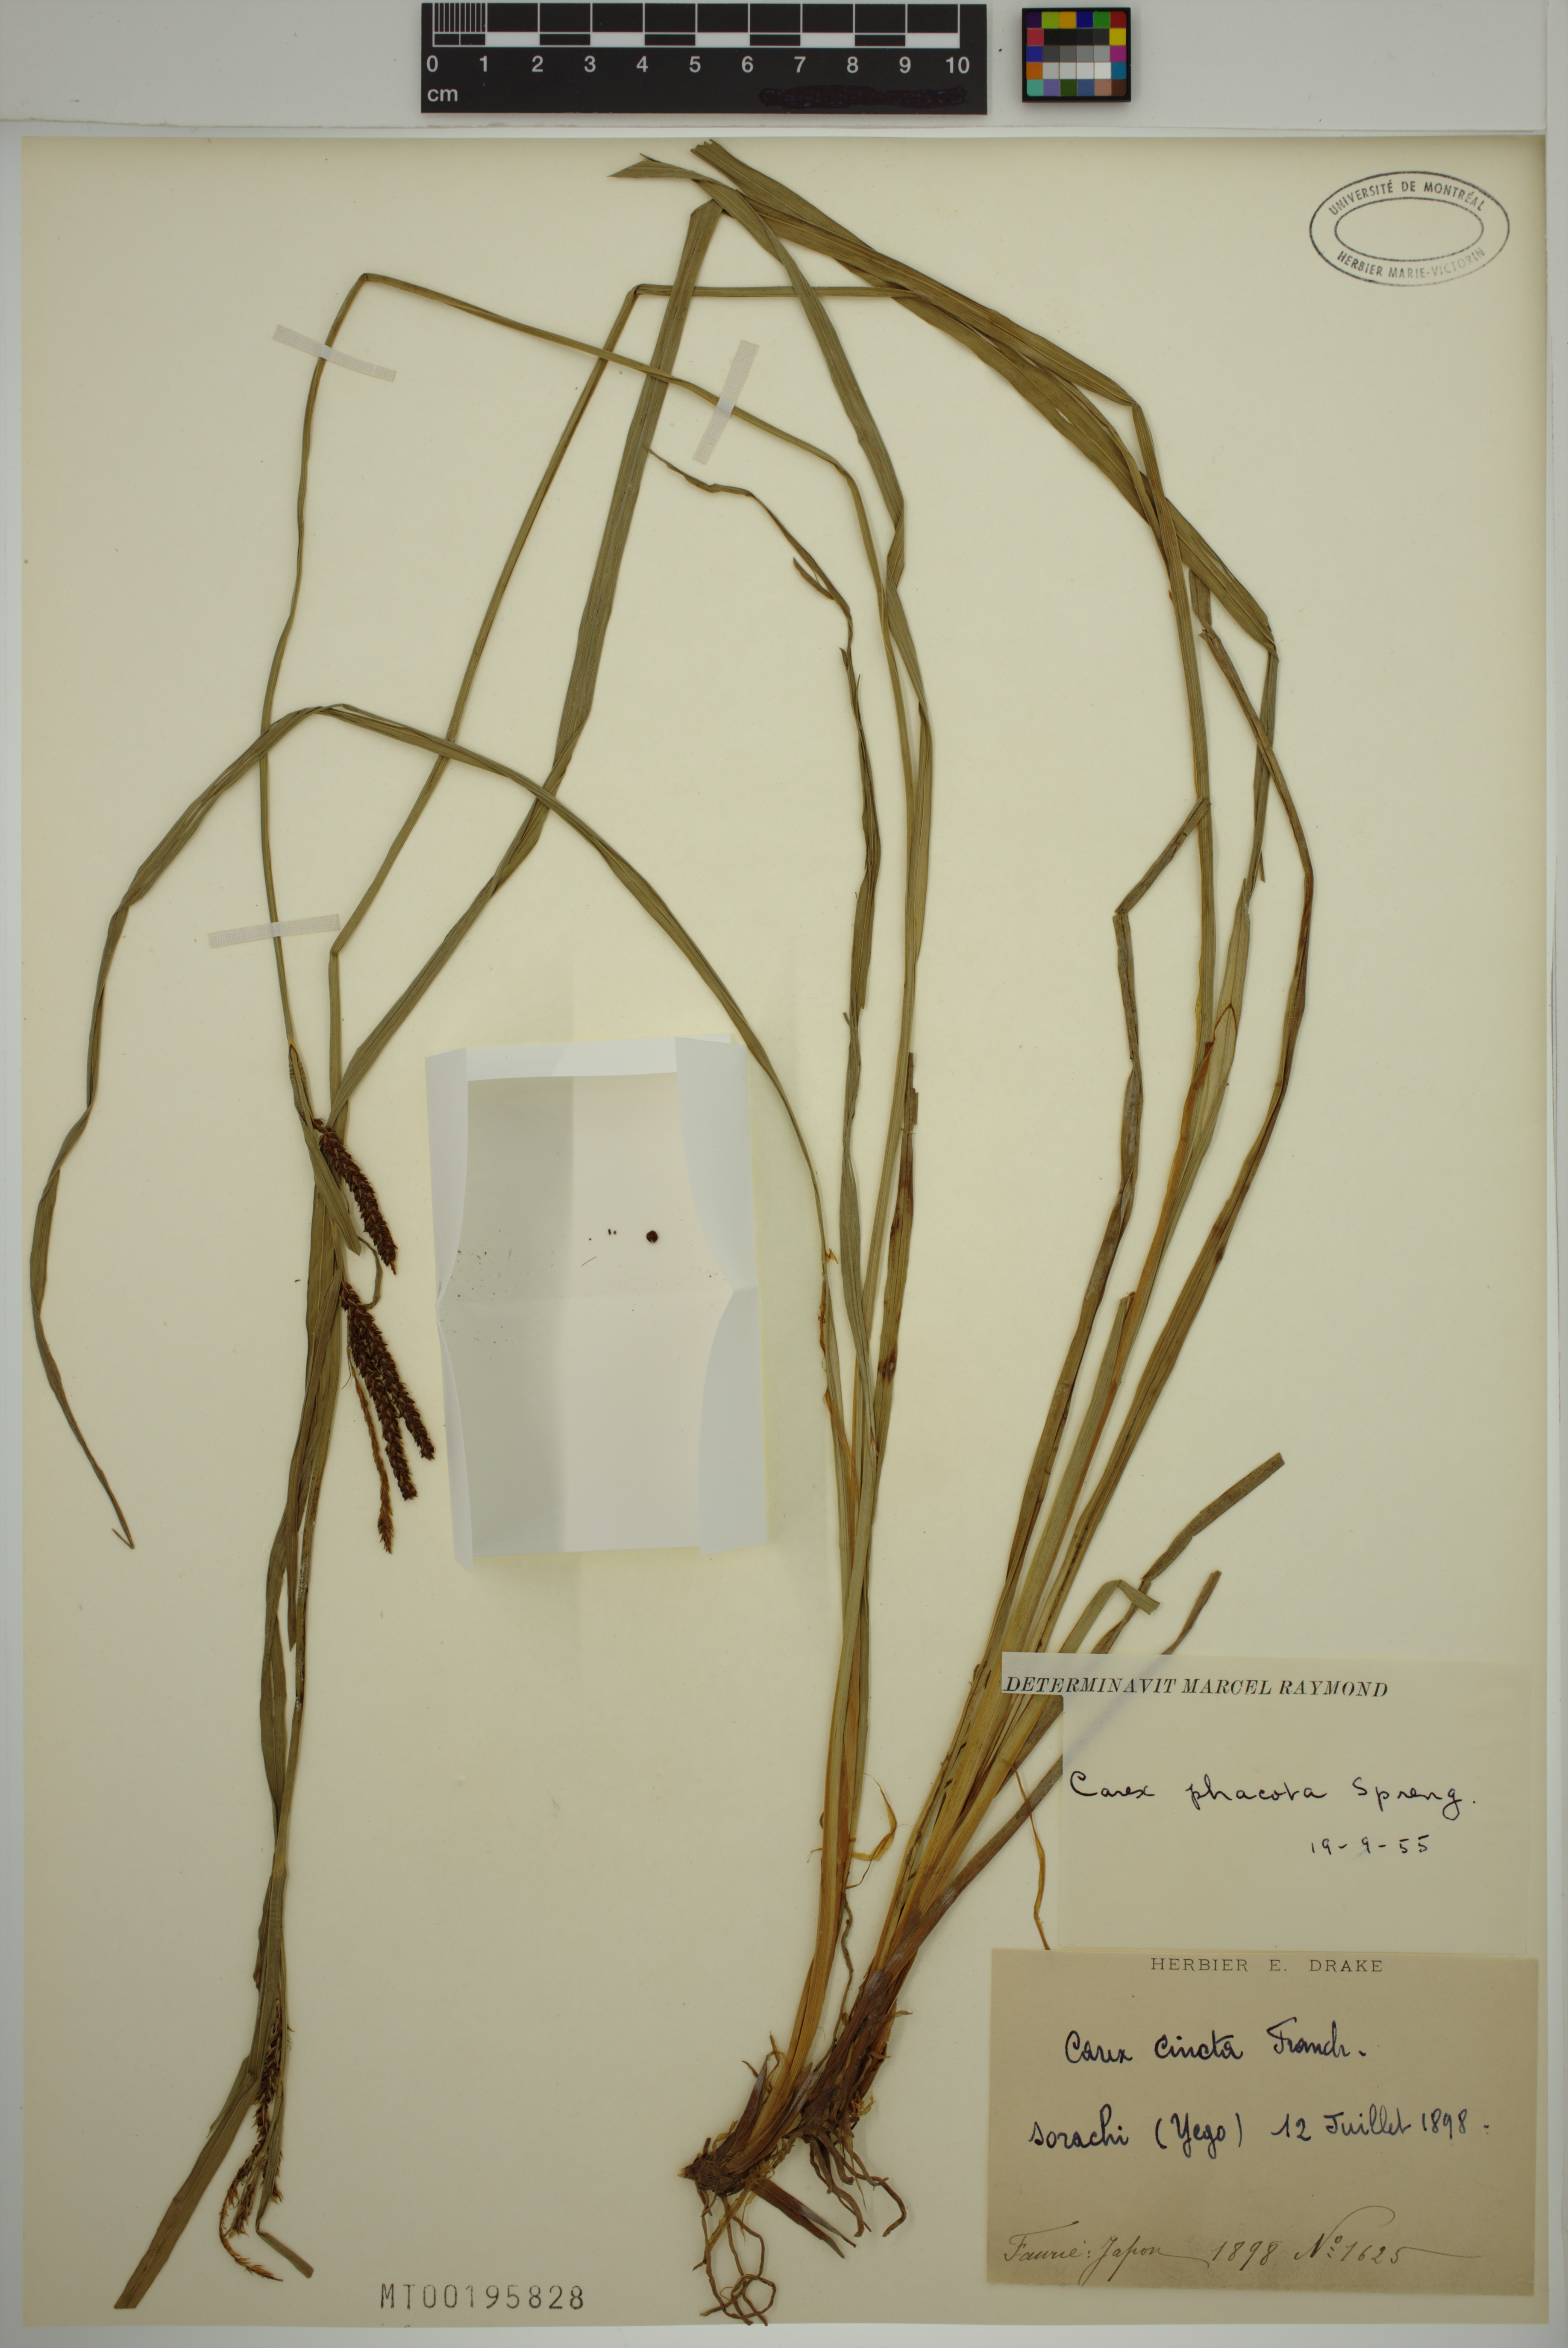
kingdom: Plantae
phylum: Tracheophyta
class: Liliopsida
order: Poales
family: Cyperaceae
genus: Carex
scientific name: Carex phacota
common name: Lakeshore sedge
